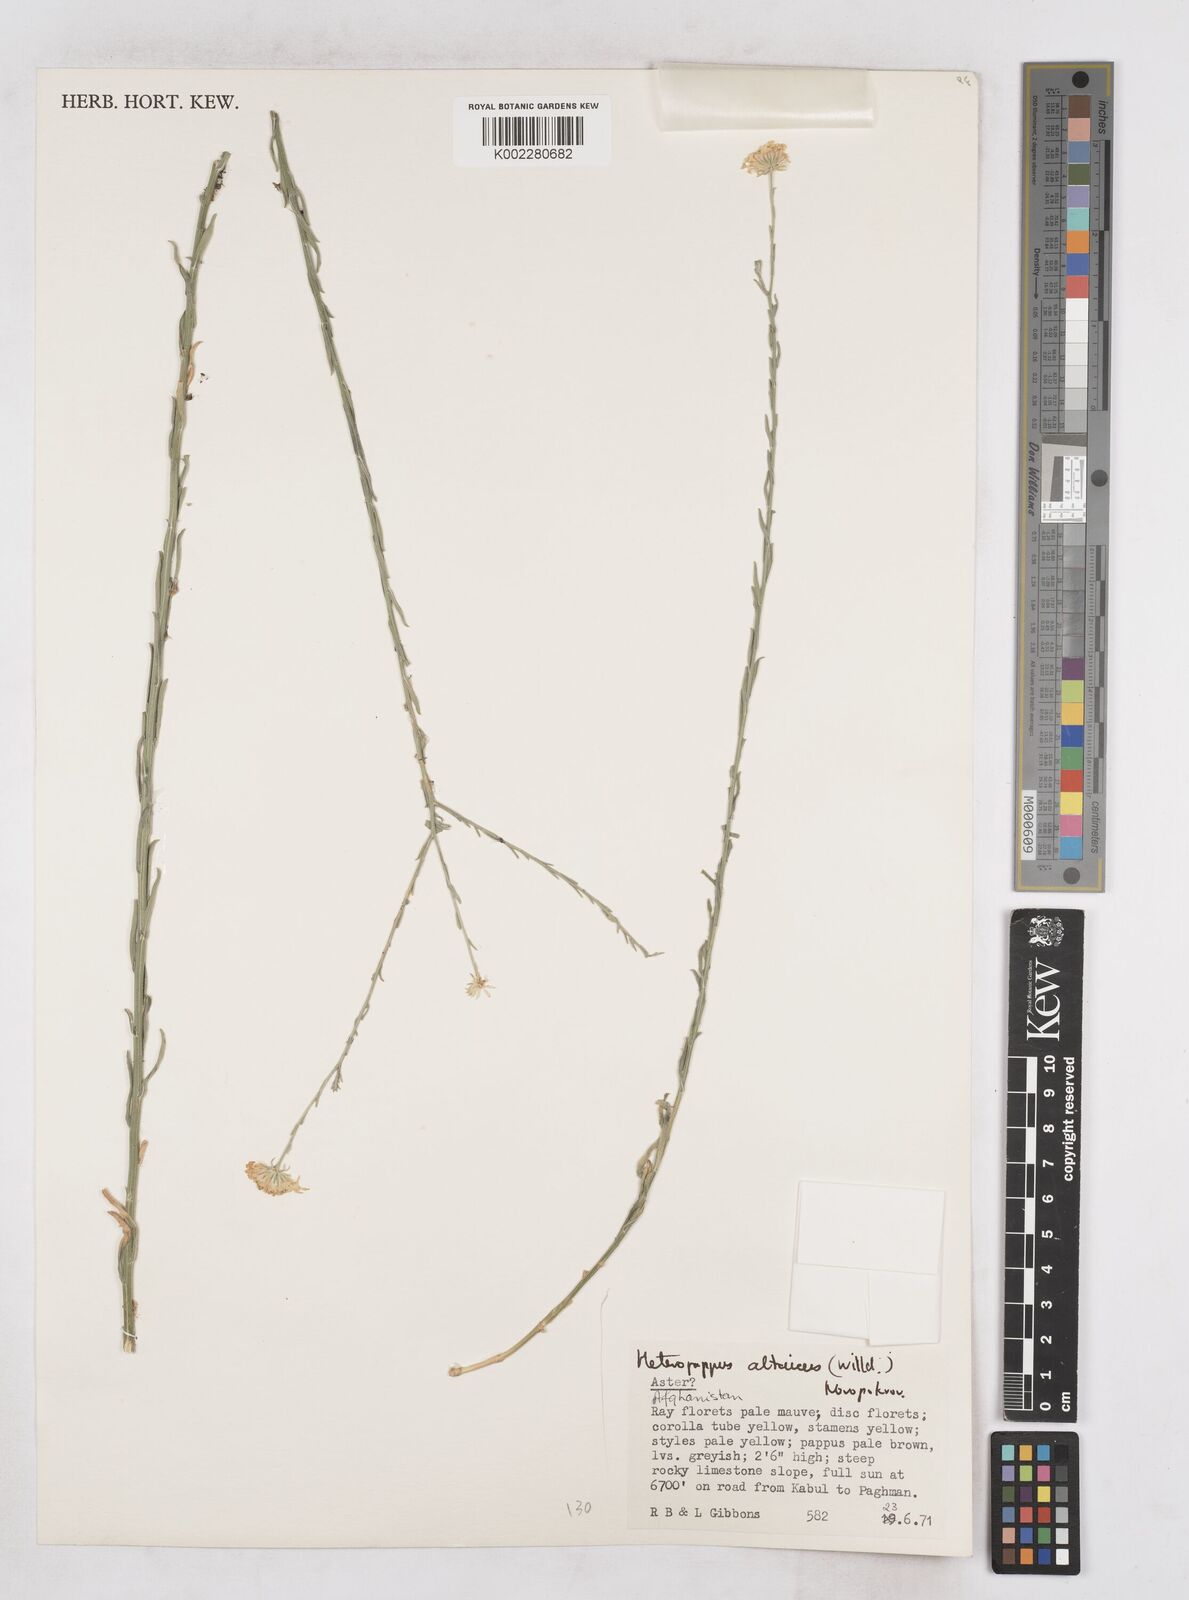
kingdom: Plantae
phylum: Tracheophyta
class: Magnoliopsida
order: Asterales
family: Asteraceae
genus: Heteropappus
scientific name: Heteropappus altaicus
